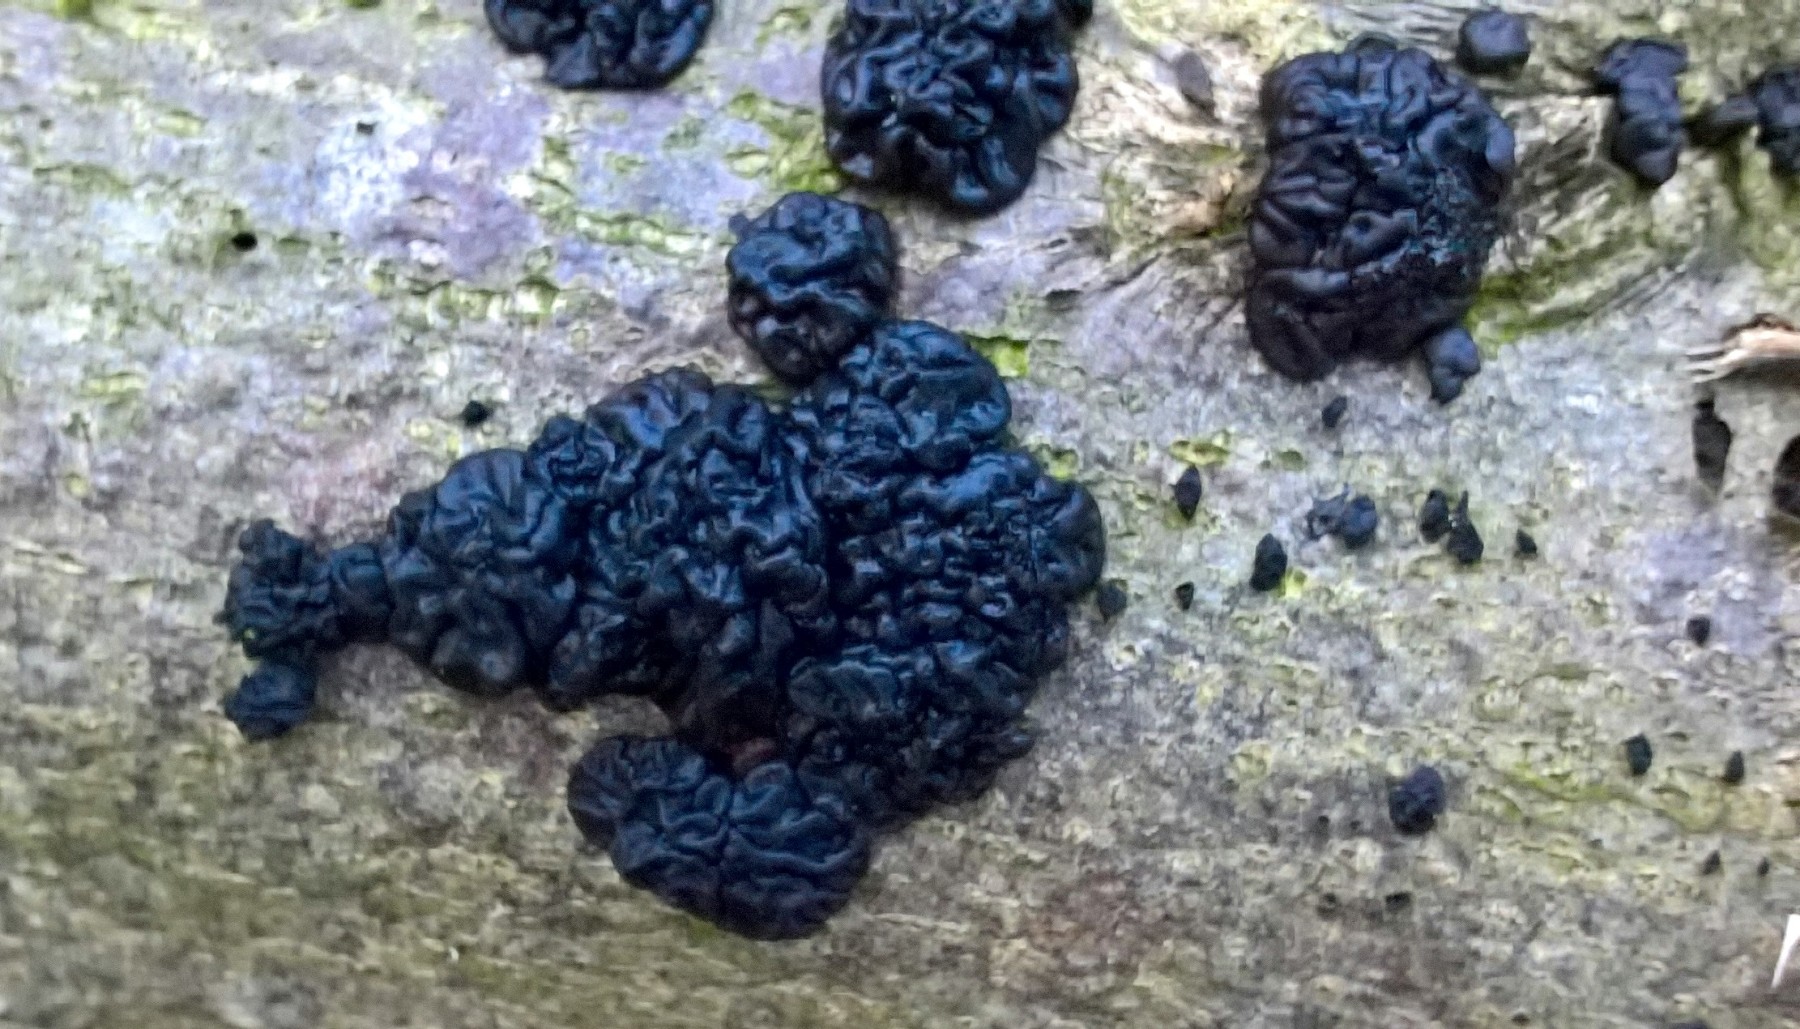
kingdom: Fungi
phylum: Basidiomycota
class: Agaricomycetes
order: Auriculariales
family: Auriculariaceae
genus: Exidia
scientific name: Exidia nigricans
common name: almindelig bævretop
